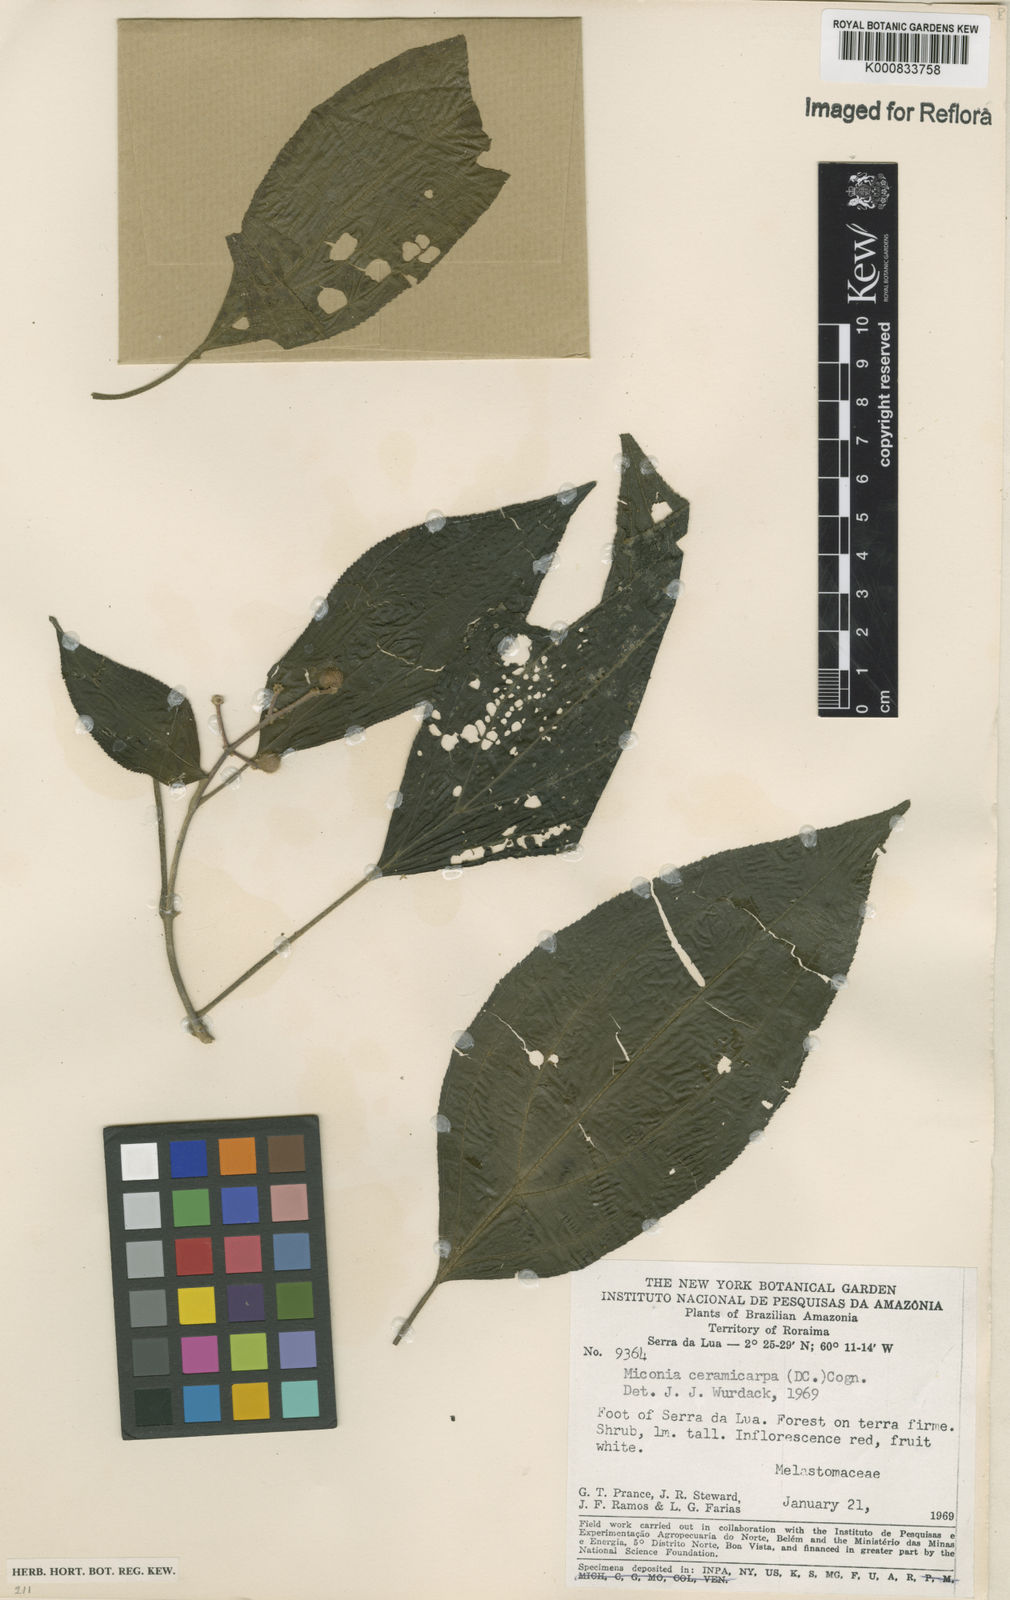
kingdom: Plantae
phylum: Tracheophyta
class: Magnoliopsida
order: Myrtales
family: Melastomataceae
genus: Miconia
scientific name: Miconia ceramicarpa
